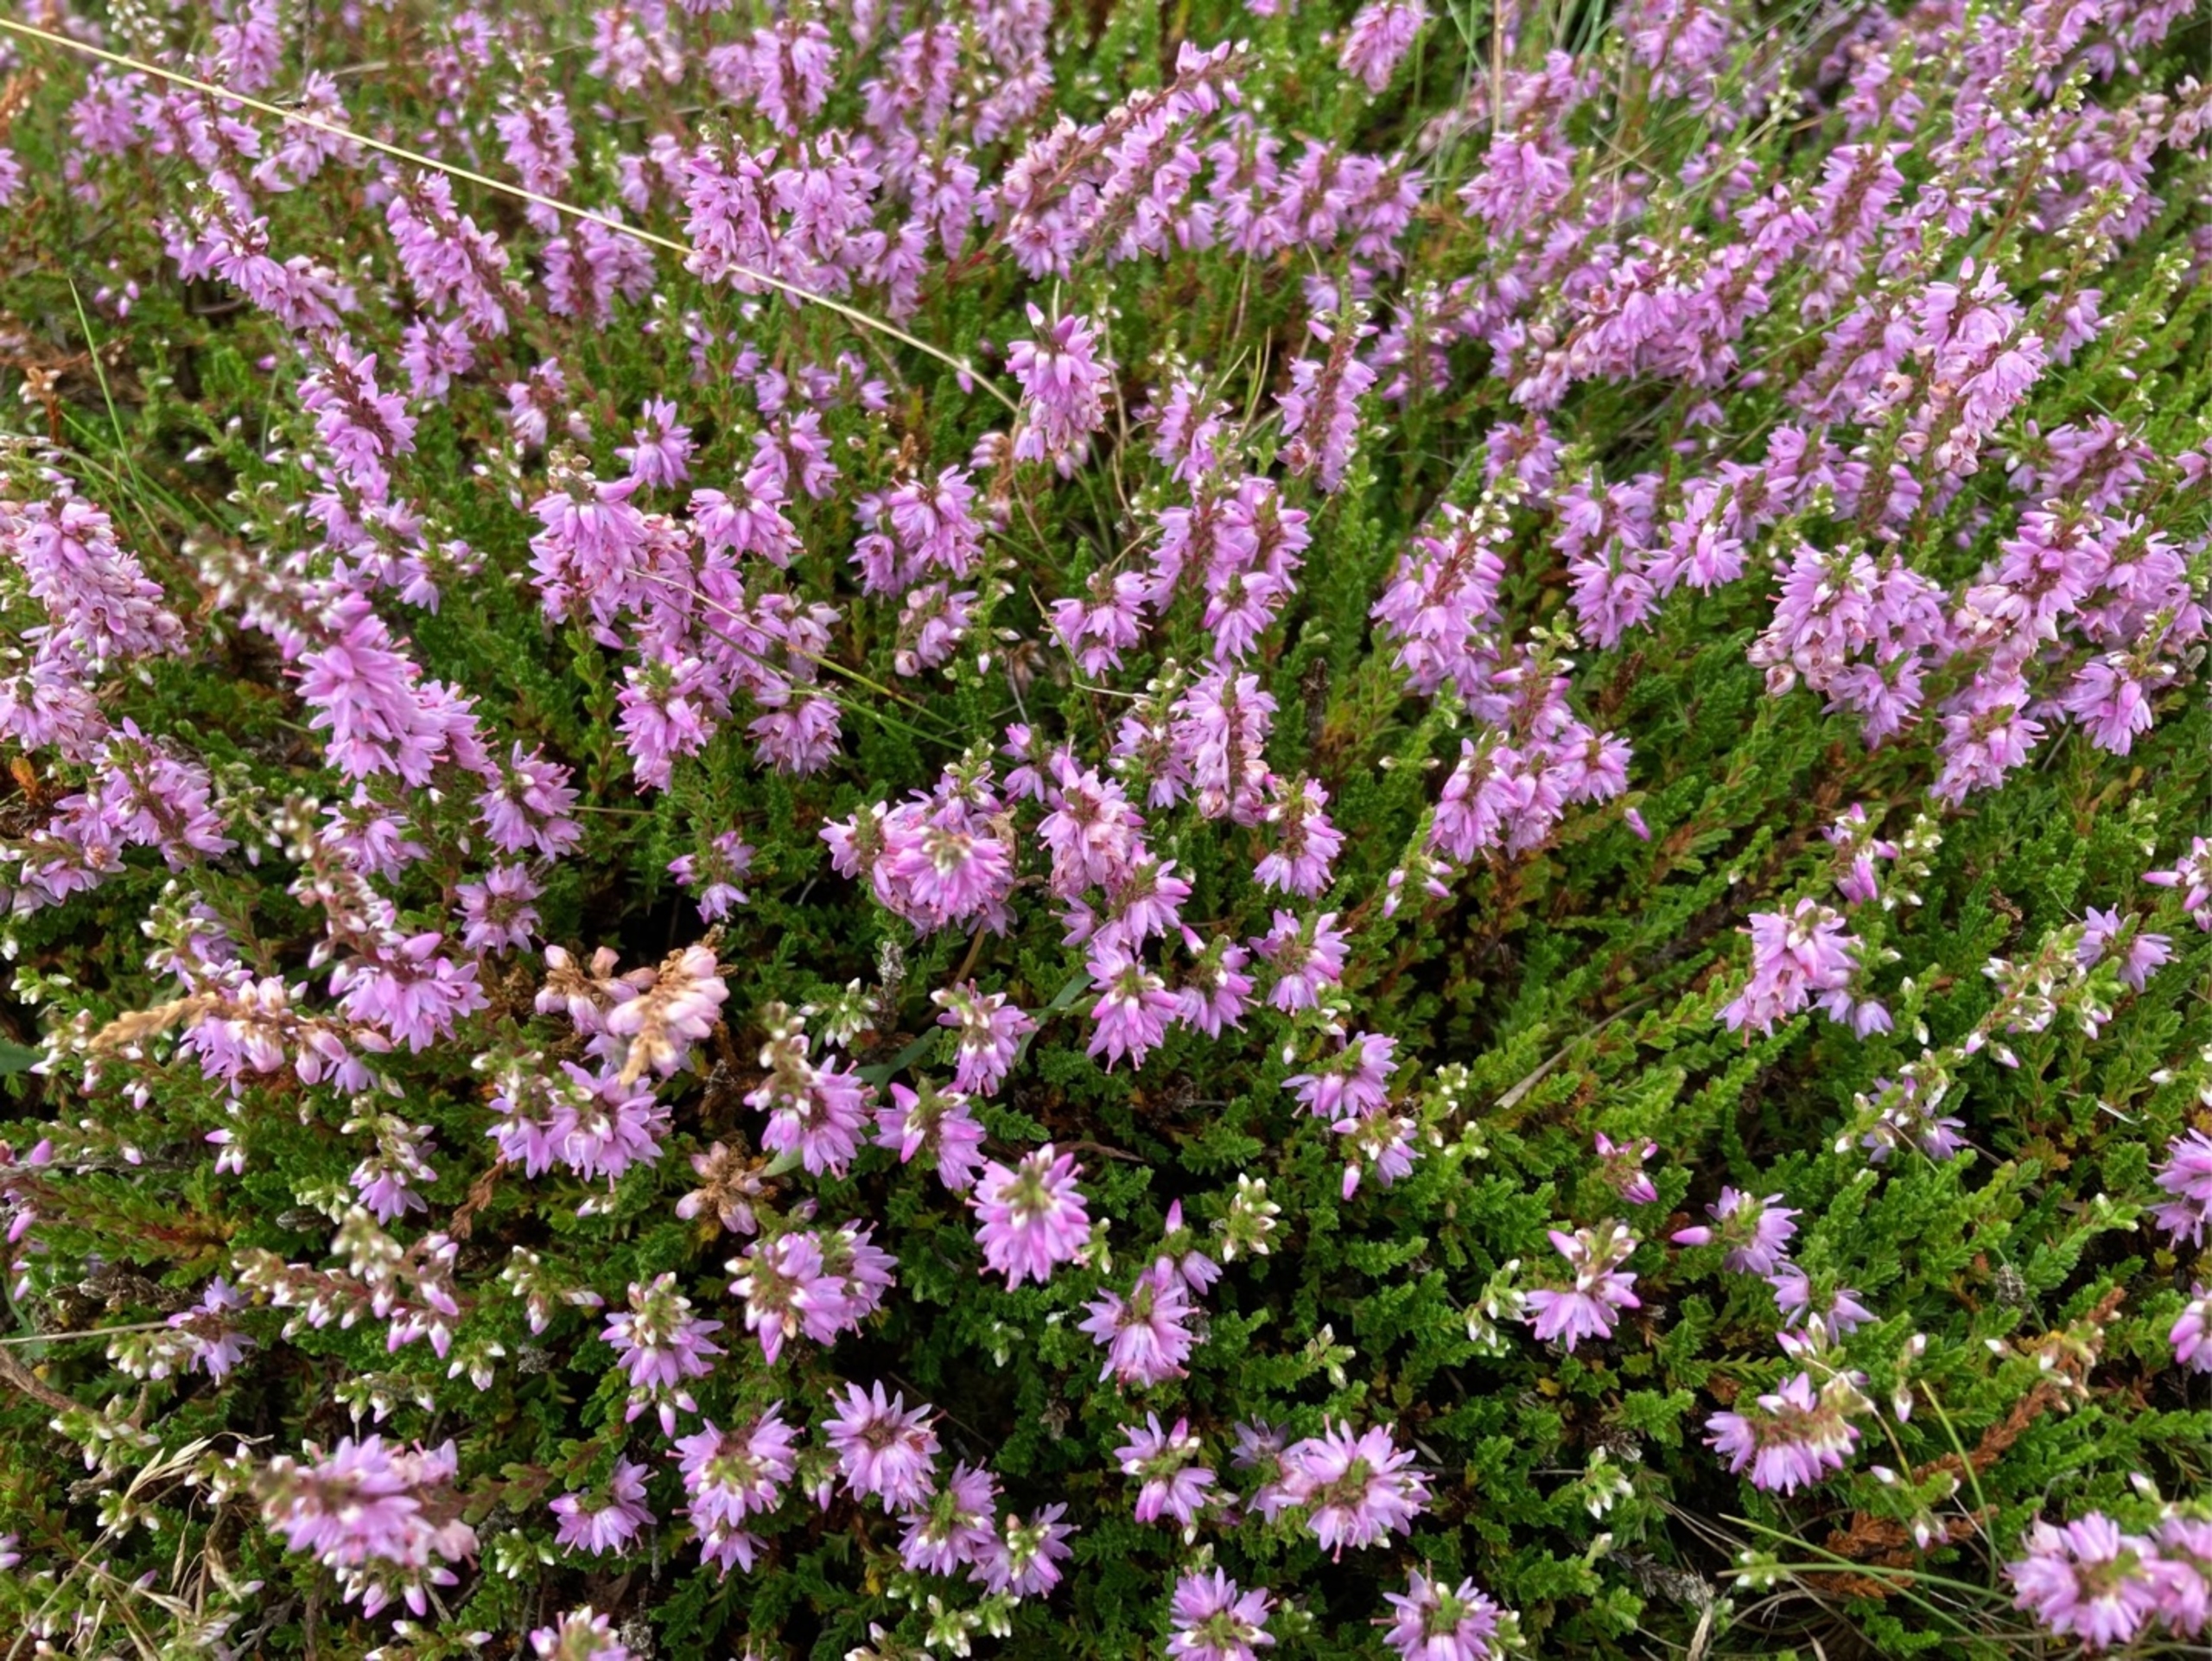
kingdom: Plantae
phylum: Tracheophyta
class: Magnoliopsida
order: Ericales
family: Ericaceae
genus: Calluna
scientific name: Calluna vulgaris
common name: Hedelyng
